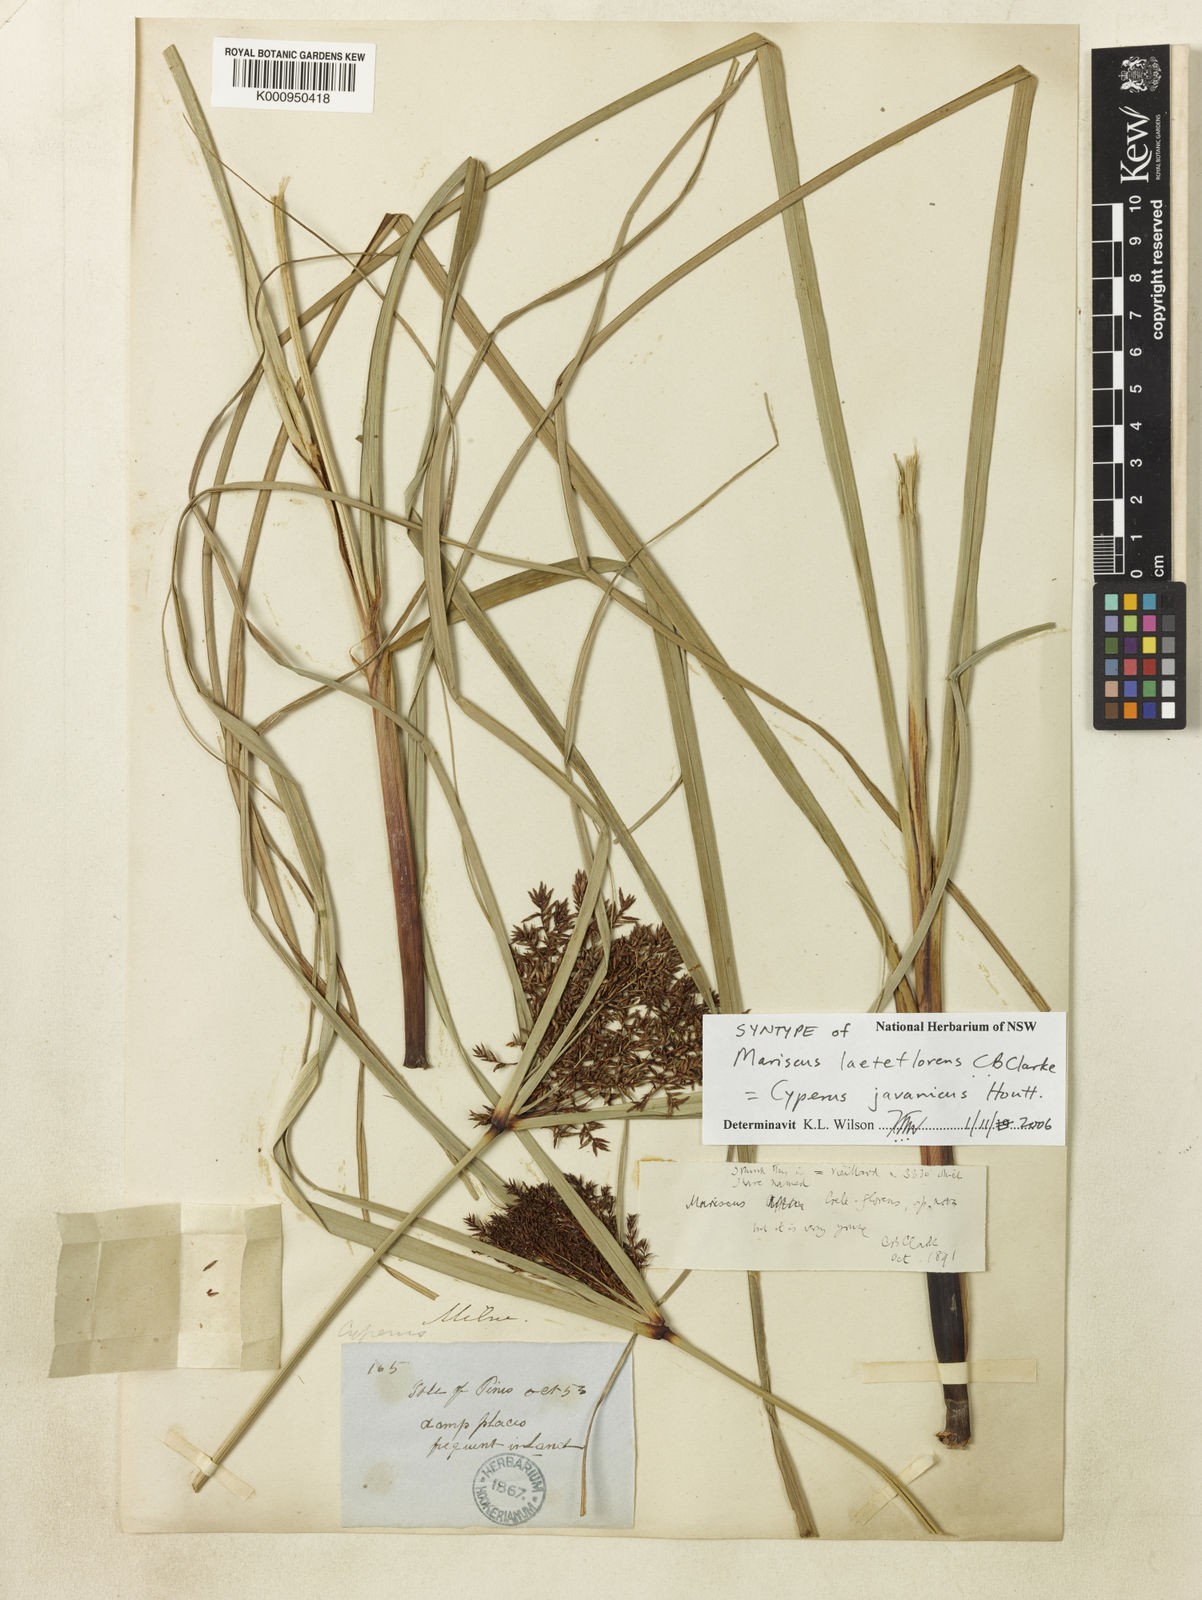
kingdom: Plantae
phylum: Tracheophyta
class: Liliopsida
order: Poales
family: Cyperaceae
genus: Cyperus
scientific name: Cyperus
